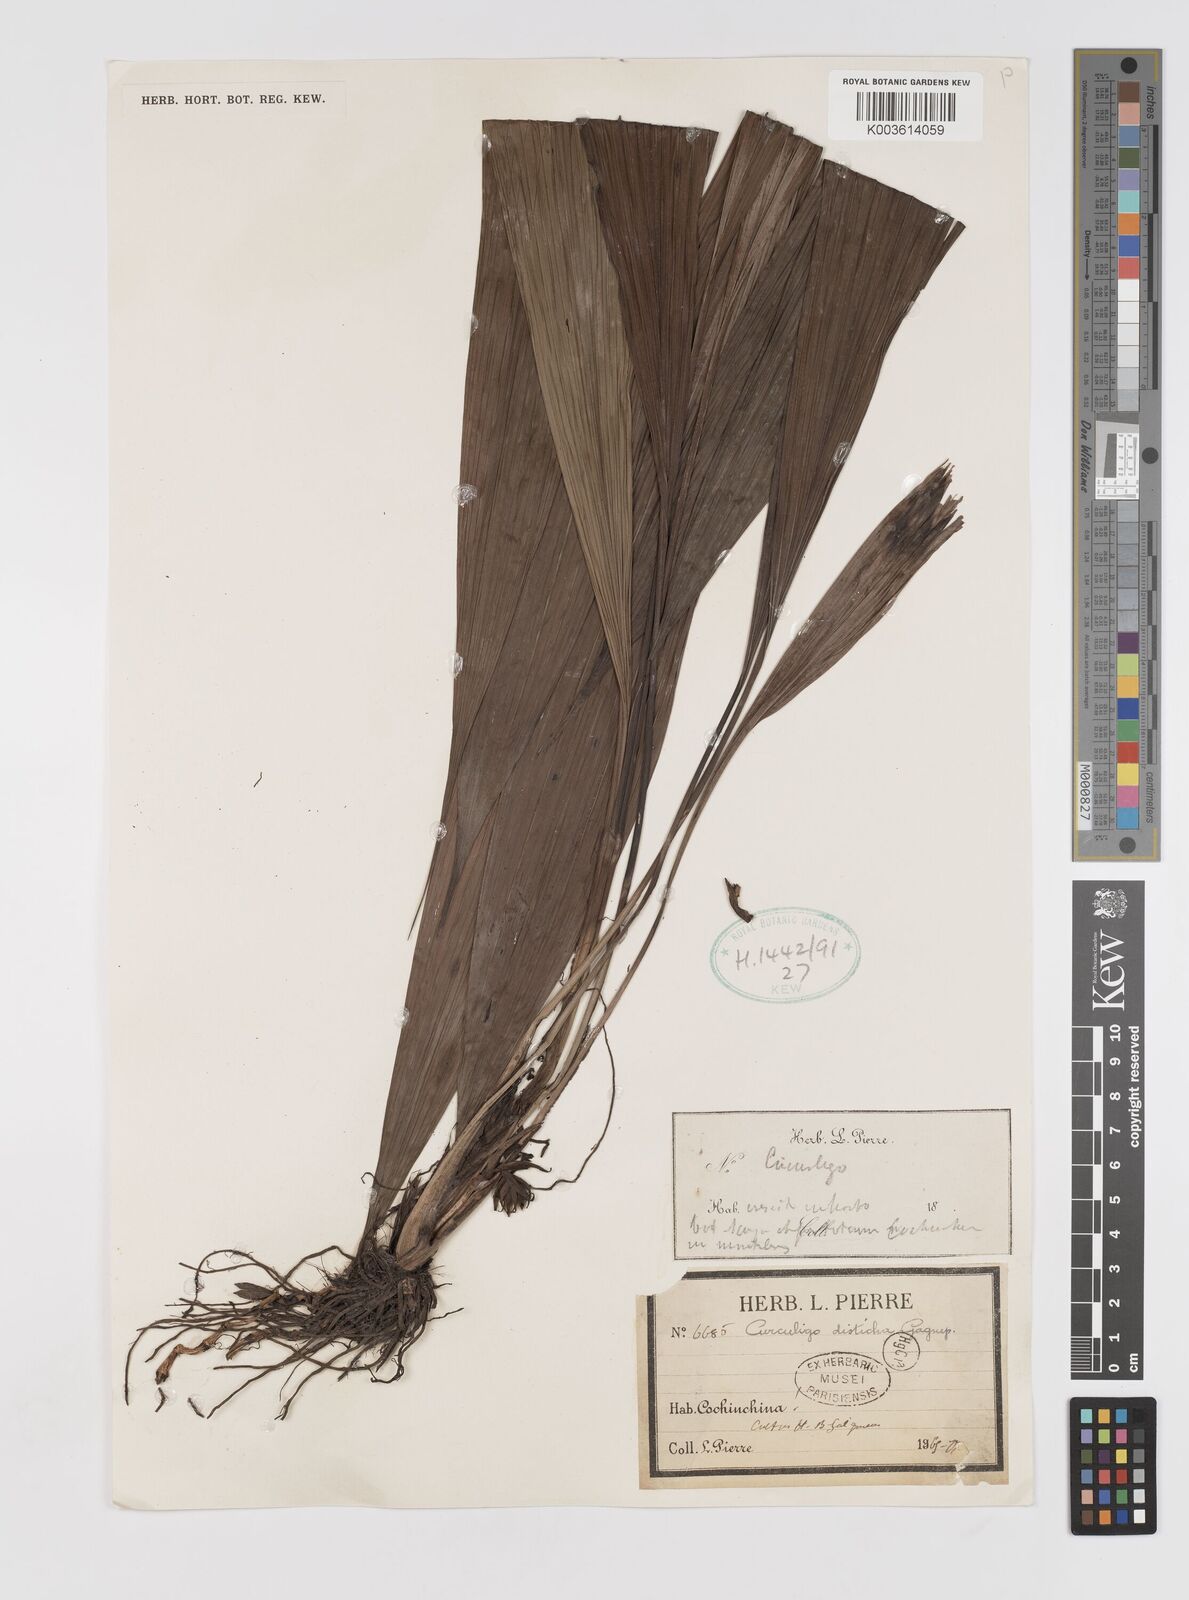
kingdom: Plantae
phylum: Tracheophyta
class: Liliopsida
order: Asparagales
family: Hypoxidaceae
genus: Curculigo
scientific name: Curculigo disticha
